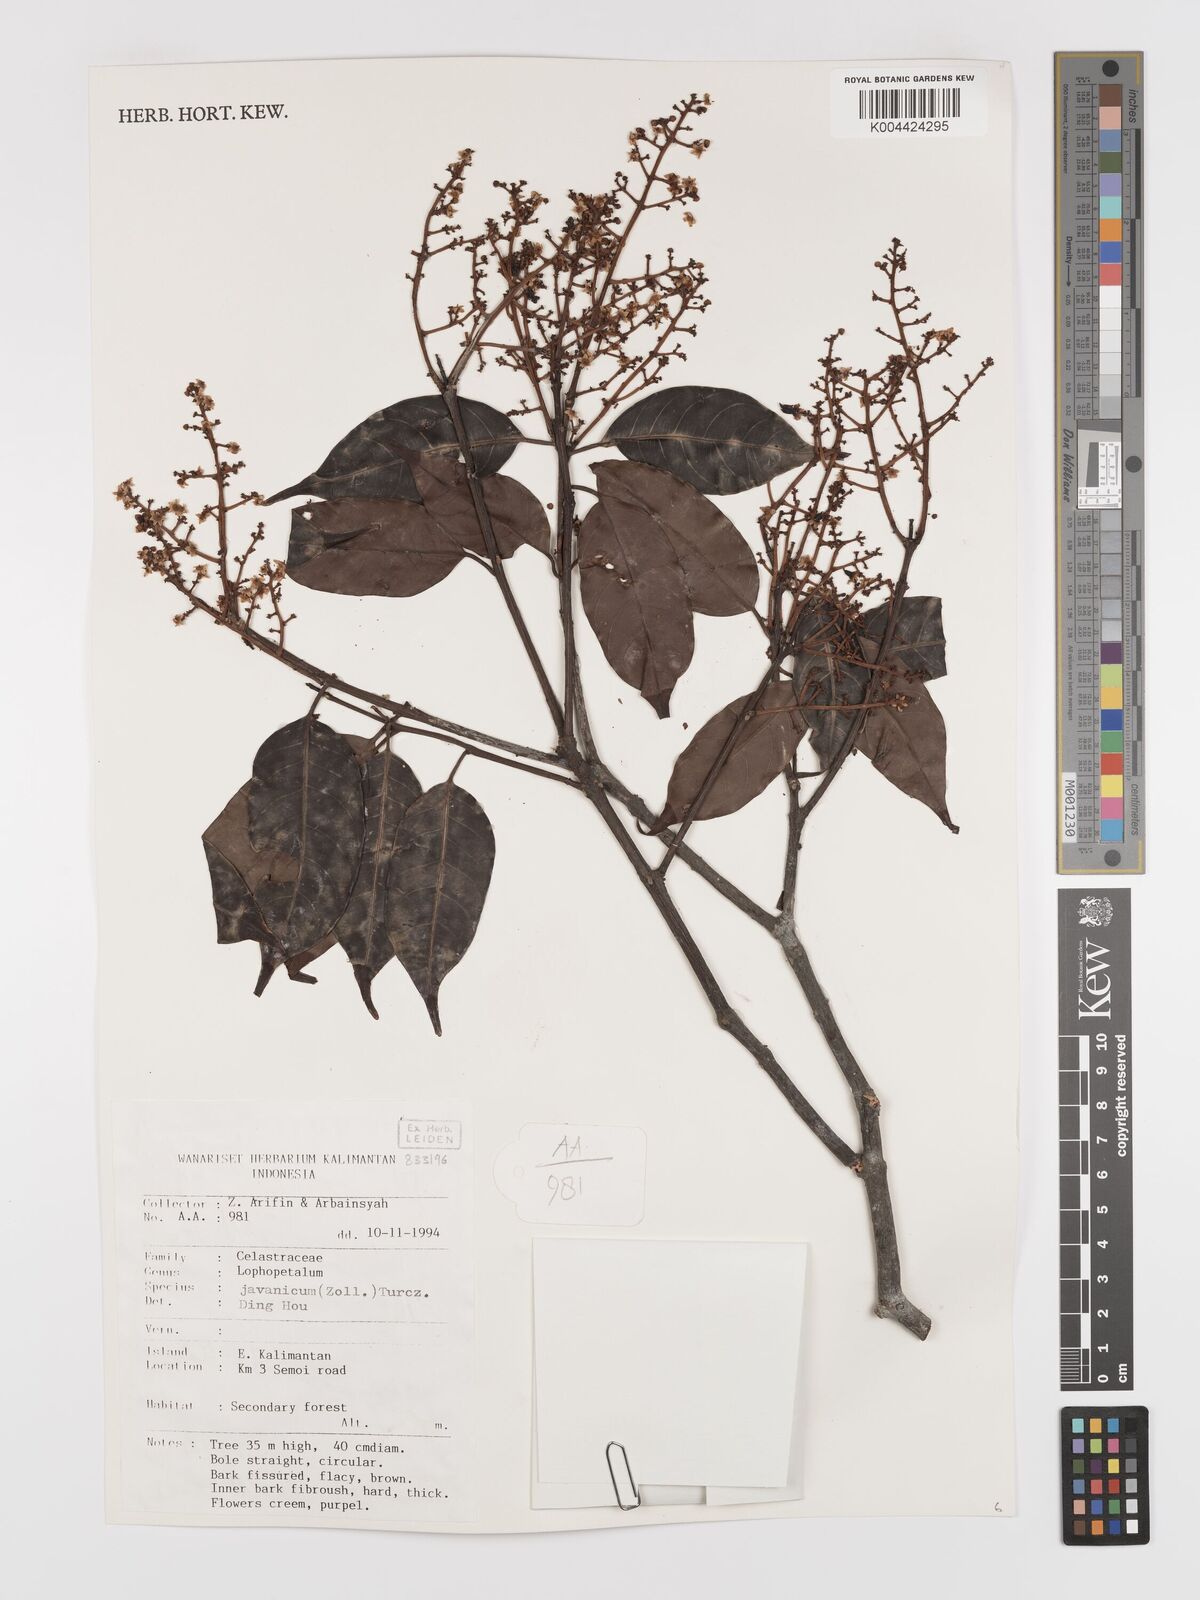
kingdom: Plantae
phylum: Tracheophyta
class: Magnoliopsida
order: Celastrales
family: Celastraceae
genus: Lophopetalum
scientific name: Lophopetalum javanicum
